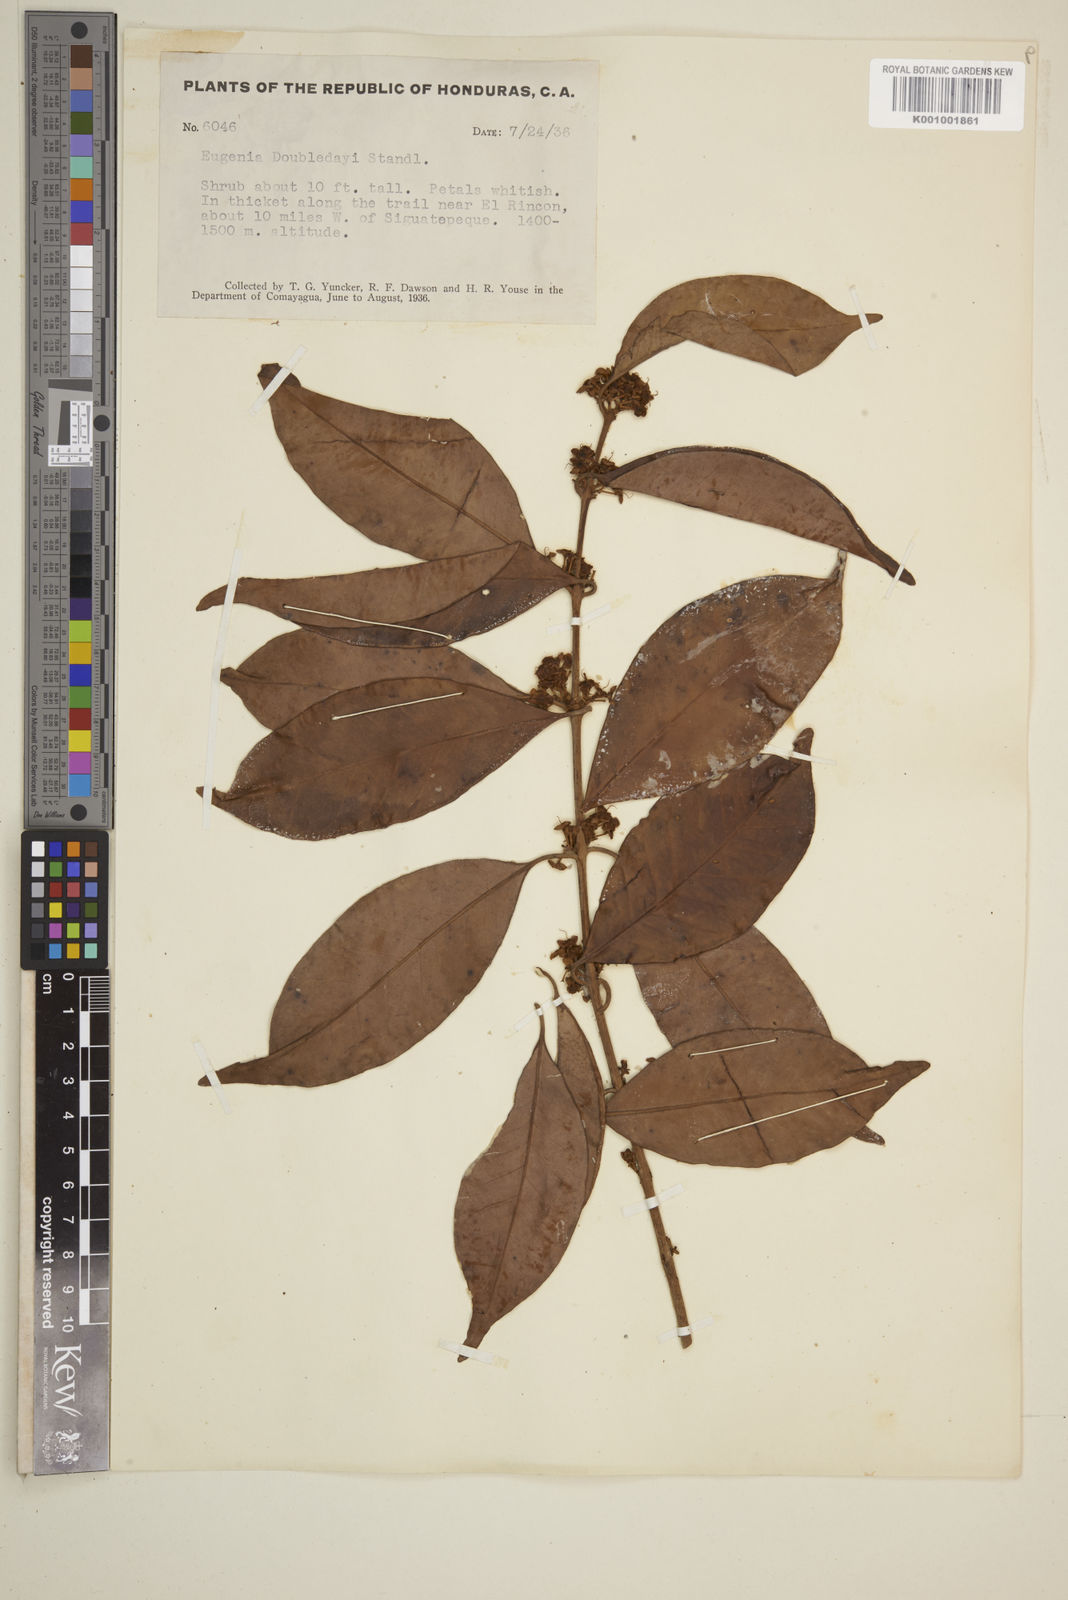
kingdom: Plantae
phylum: Tracheophyta
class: Magnoliopsida
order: Myrtales
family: Myrtaceae
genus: Eugenia
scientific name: Eugenia doubledayi
